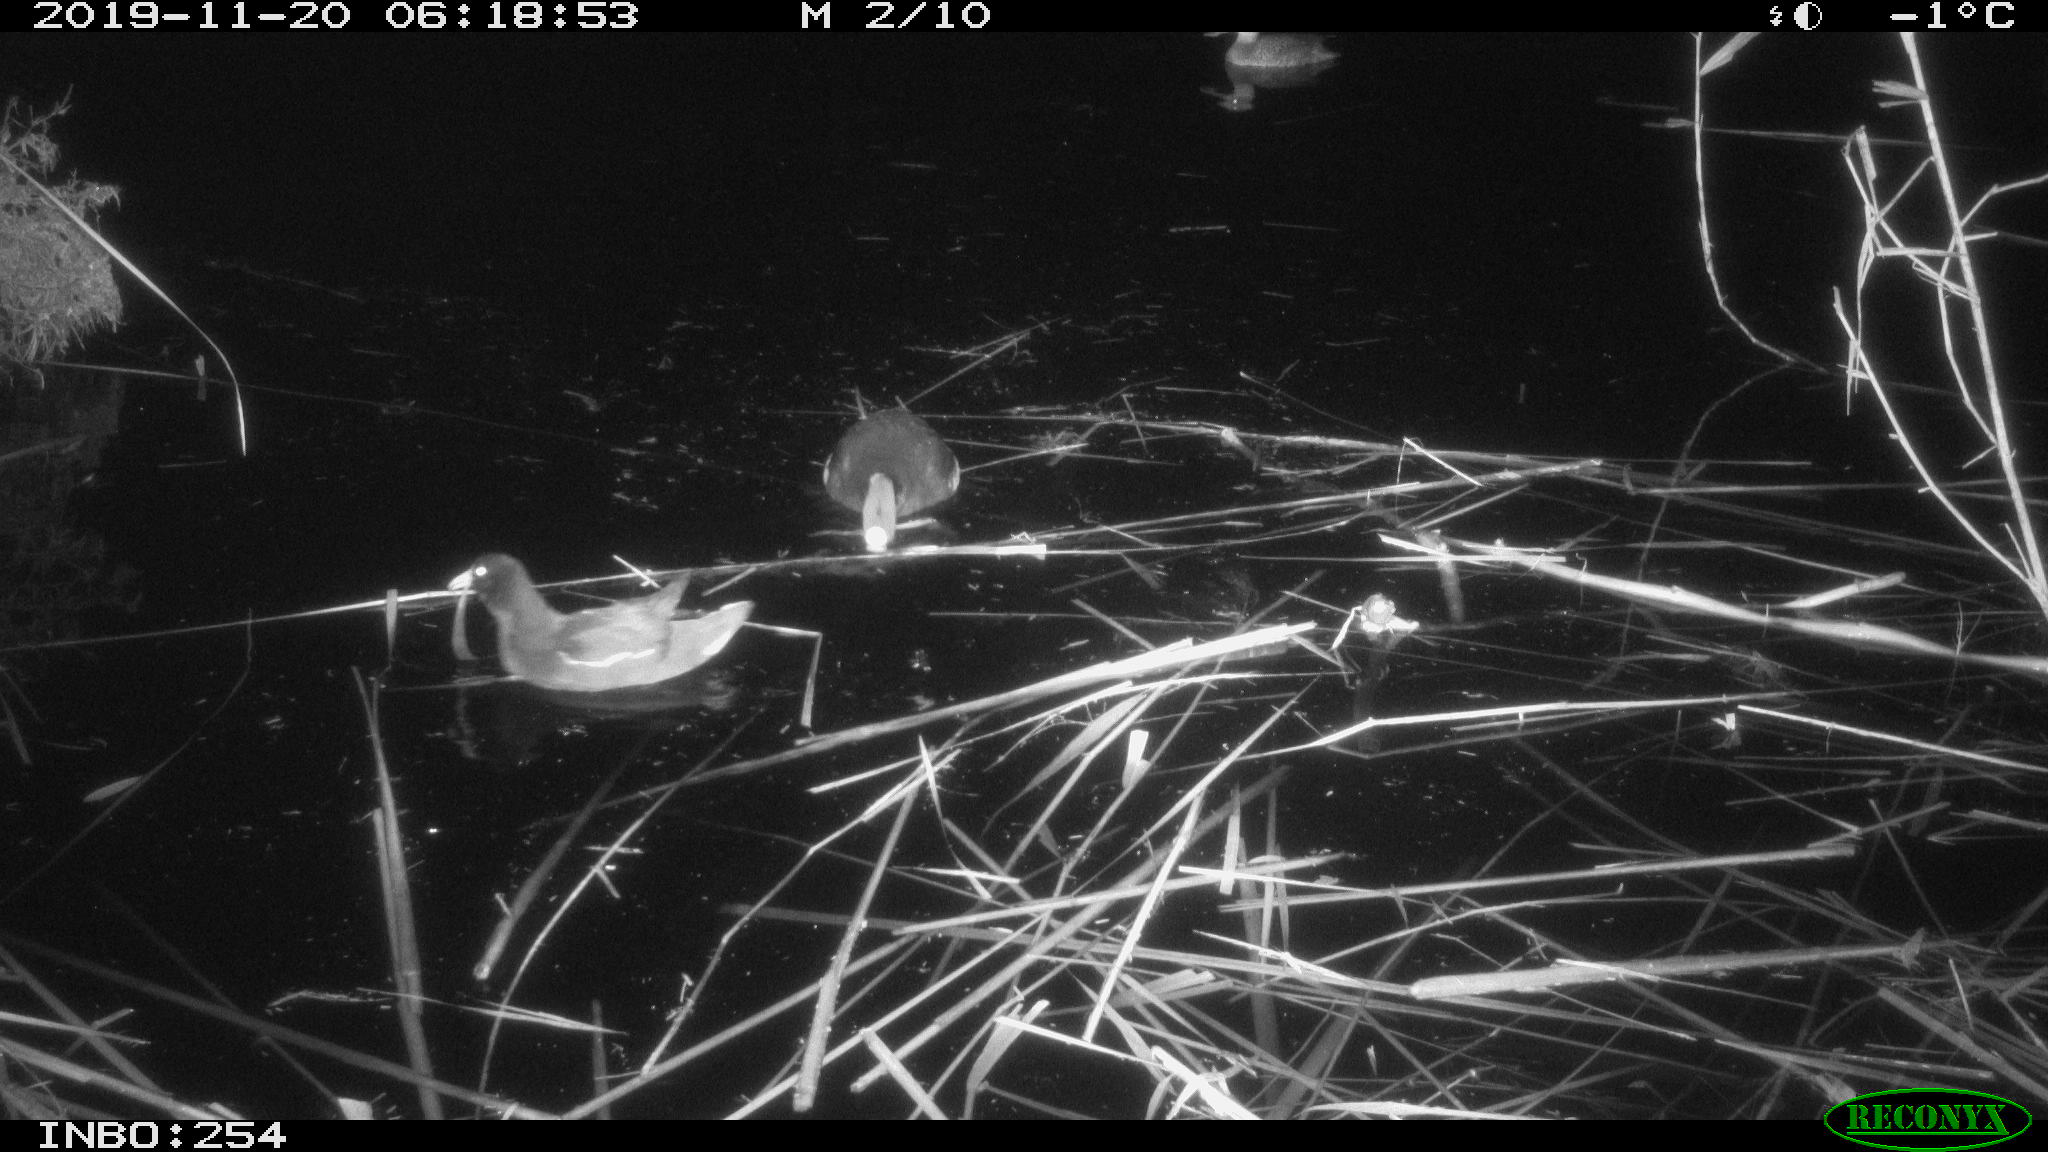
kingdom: Animalia
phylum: Chordata
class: Aves
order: Gruiformes
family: Rallidae
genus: Gallinula
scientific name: Gallinula chloropus
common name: Common moorhen
